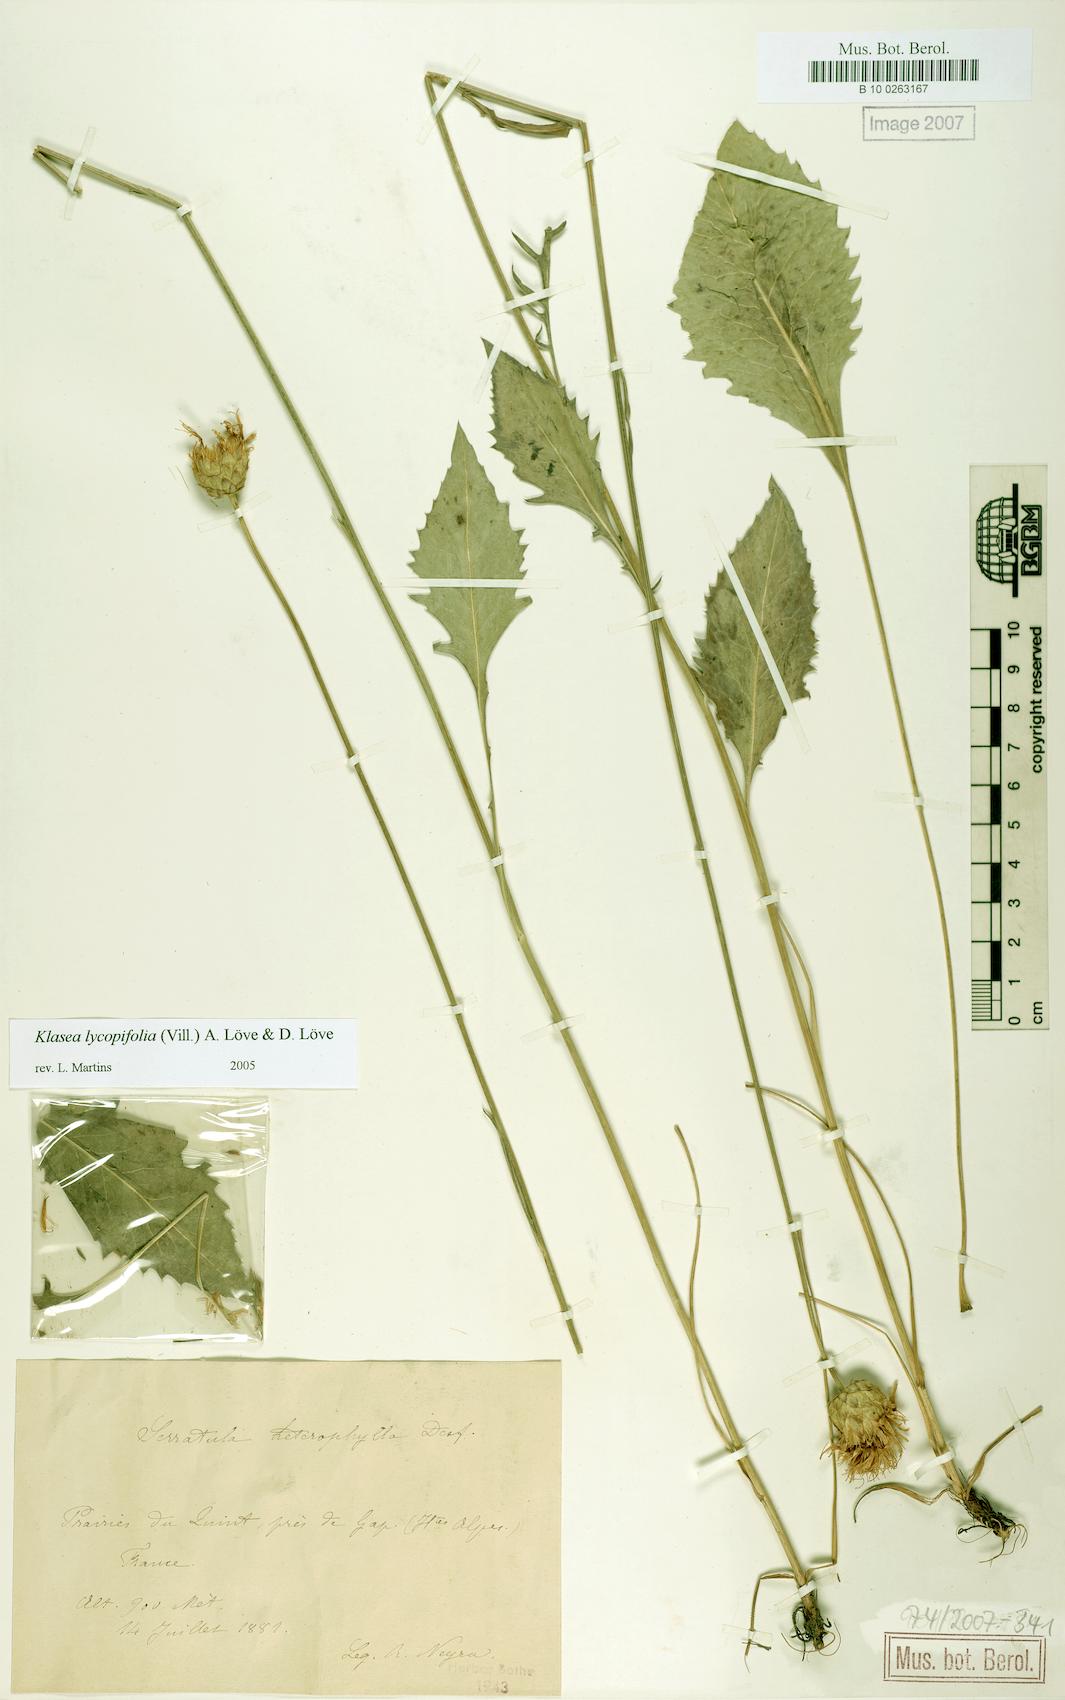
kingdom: Plantae
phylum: Tracheophyta
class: Magnoliopsida
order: Asterales
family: Asteraceae
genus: Klasea
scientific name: Klasea lycopifolia
